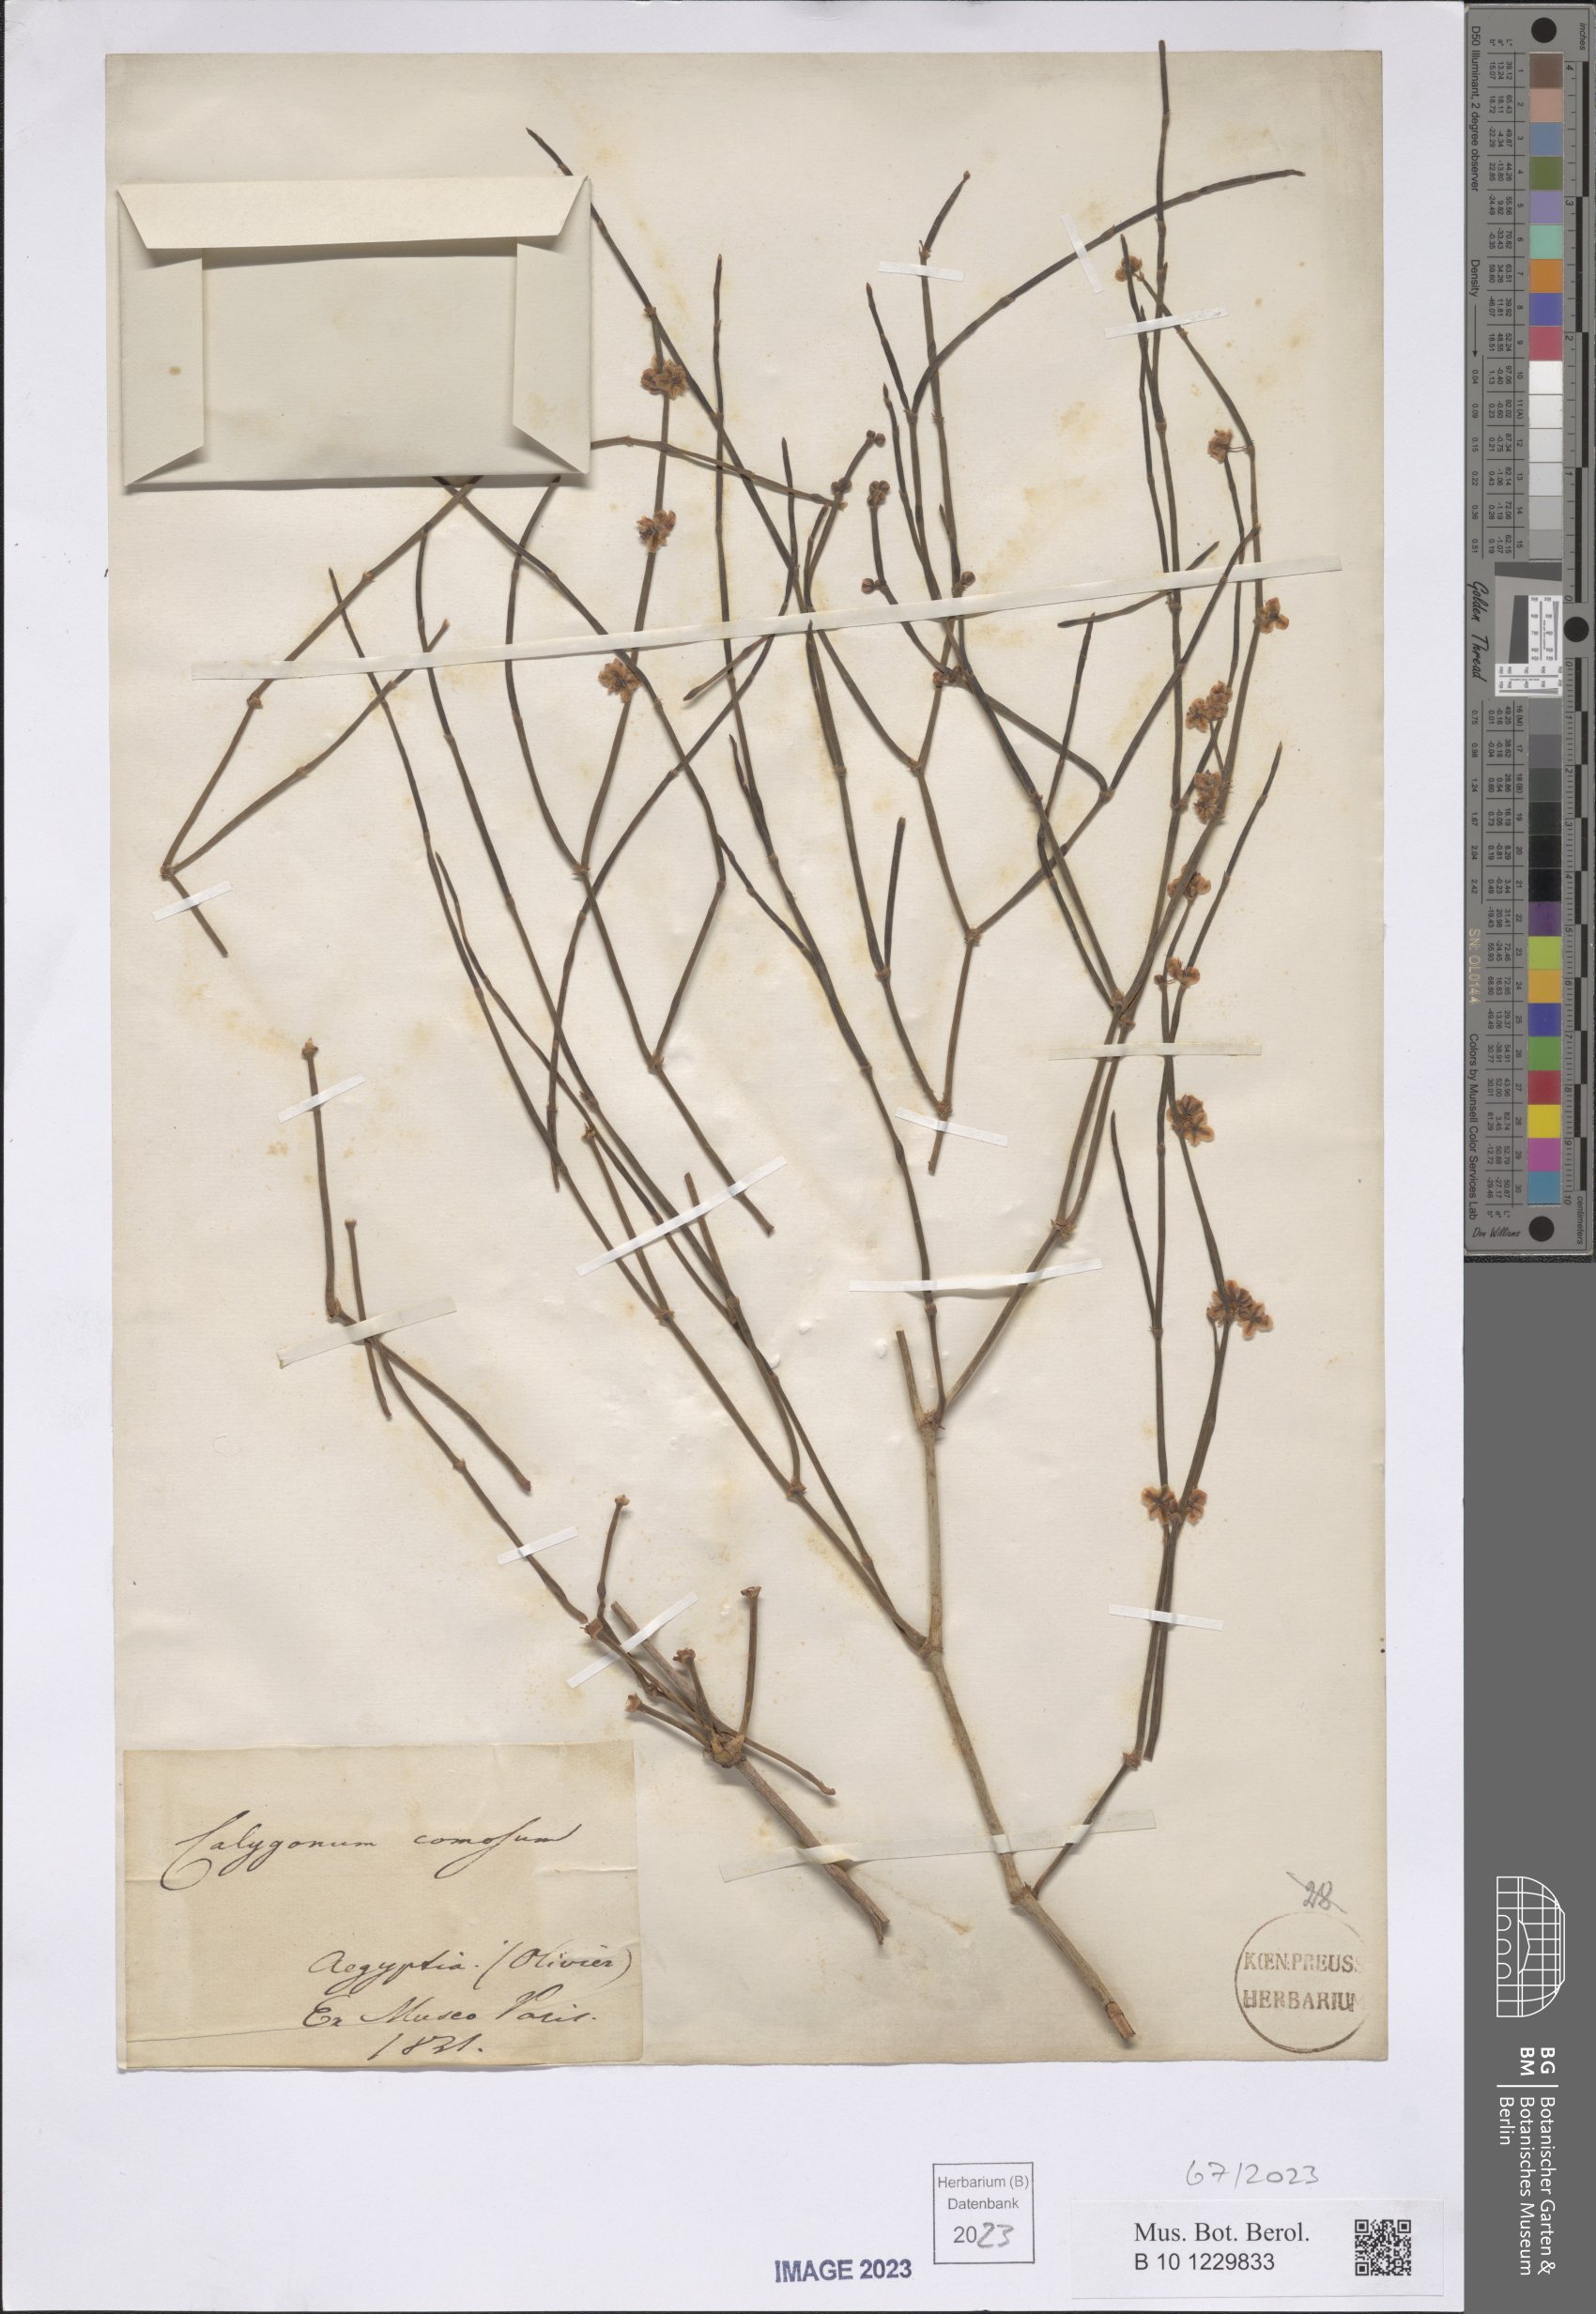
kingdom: Plantae
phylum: Tracheophyta
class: Magnoliopsida
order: Caryophyllales
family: Polygonaceae
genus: Calligonum
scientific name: Calligonum comosum
